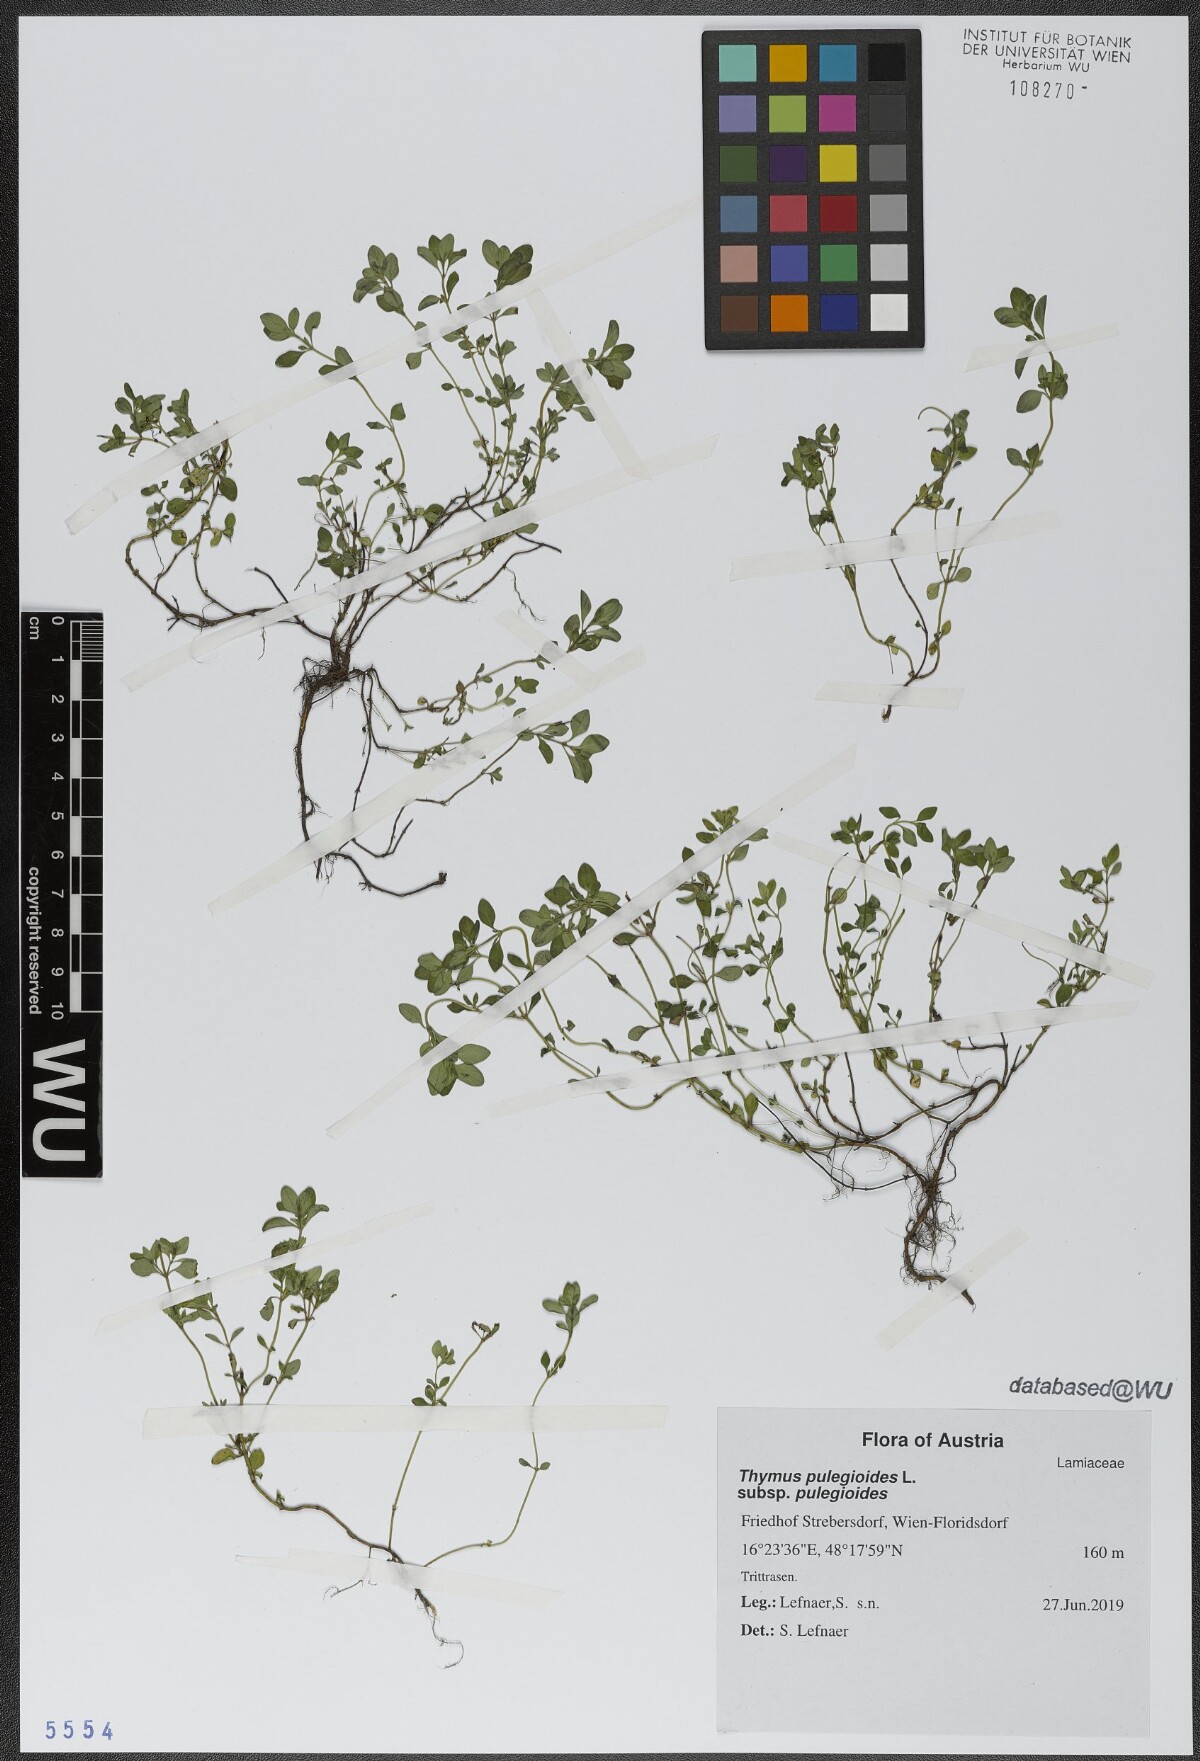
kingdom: Plantae
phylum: Tracheophyta
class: Magnoliopsida
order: Lamiales
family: Lamiaceae
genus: Thymus
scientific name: Thymus pulegioides
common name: Large thyme
